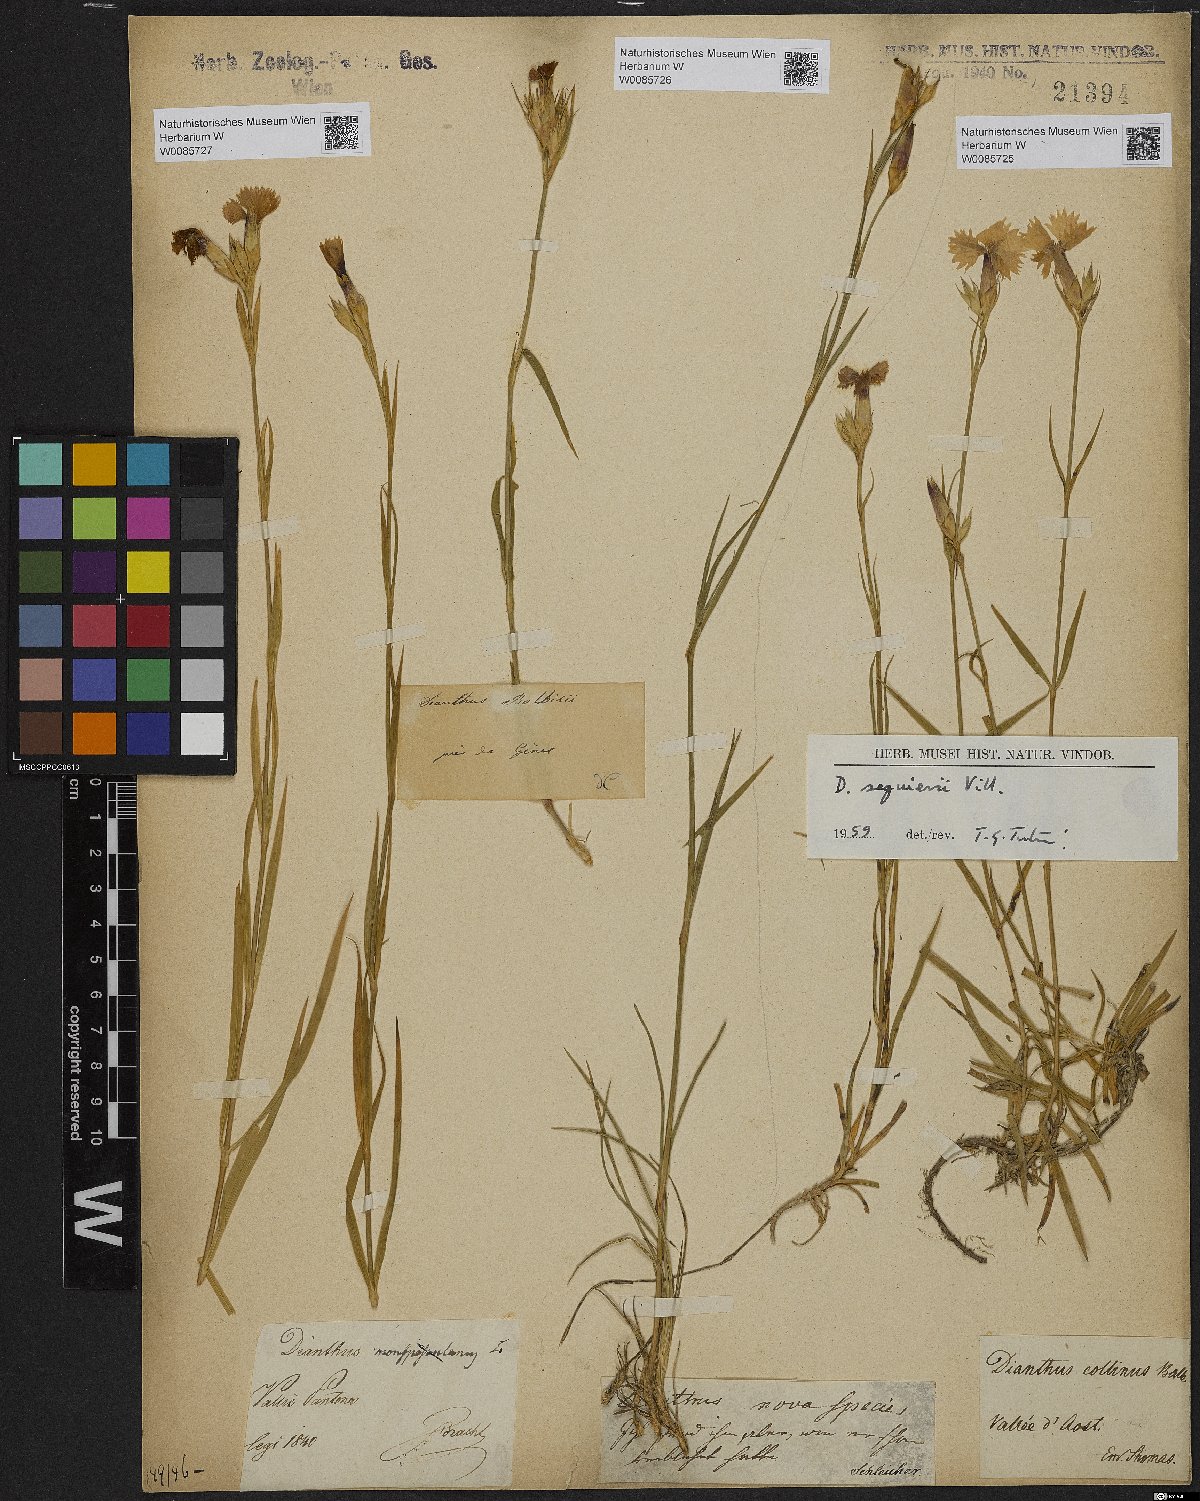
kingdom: Plantae
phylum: Tracheophyta
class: Magnoliopsida
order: Caryophyllales
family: Caryophyllaceae
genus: Dianthus
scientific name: Dianthus seguieri
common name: Ragged pink
